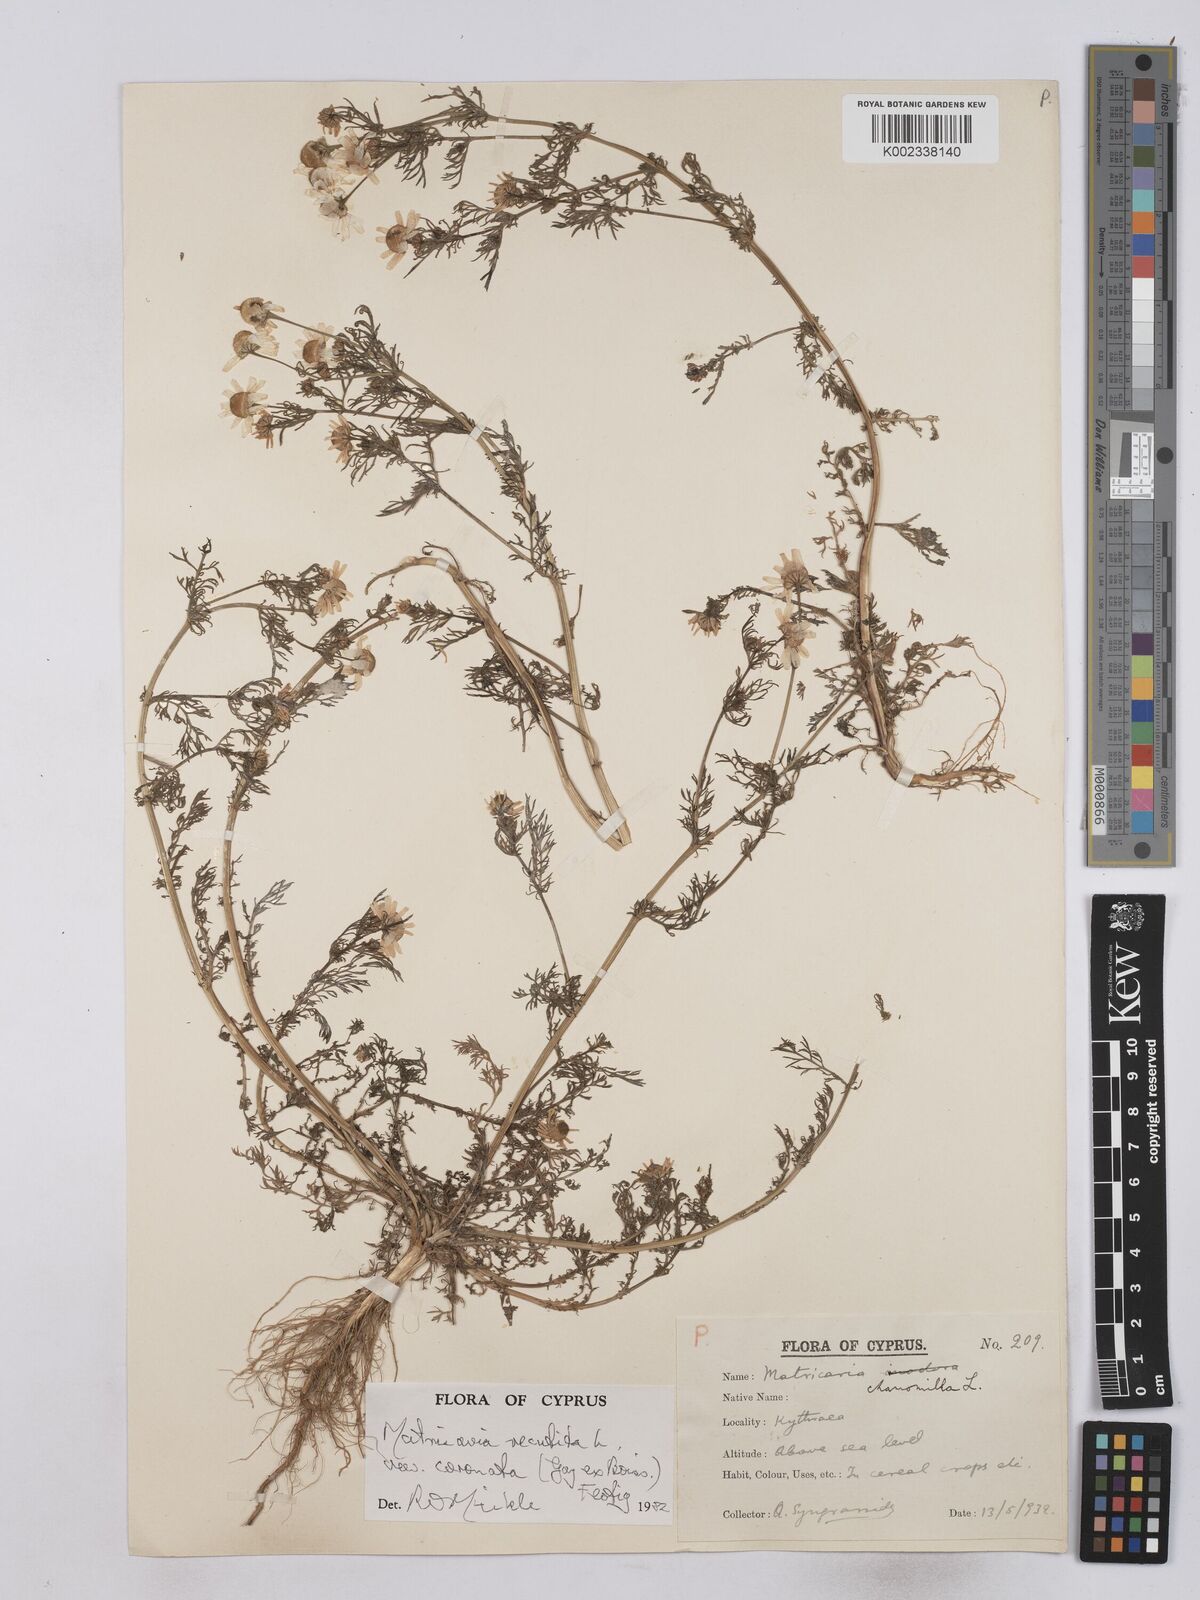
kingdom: Plantae
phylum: Tracheophyta
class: Magnoliopsida
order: Asterales
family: Asteraceae
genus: Matricaria
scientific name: Matricaria chamomilla
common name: Scented mayweed
